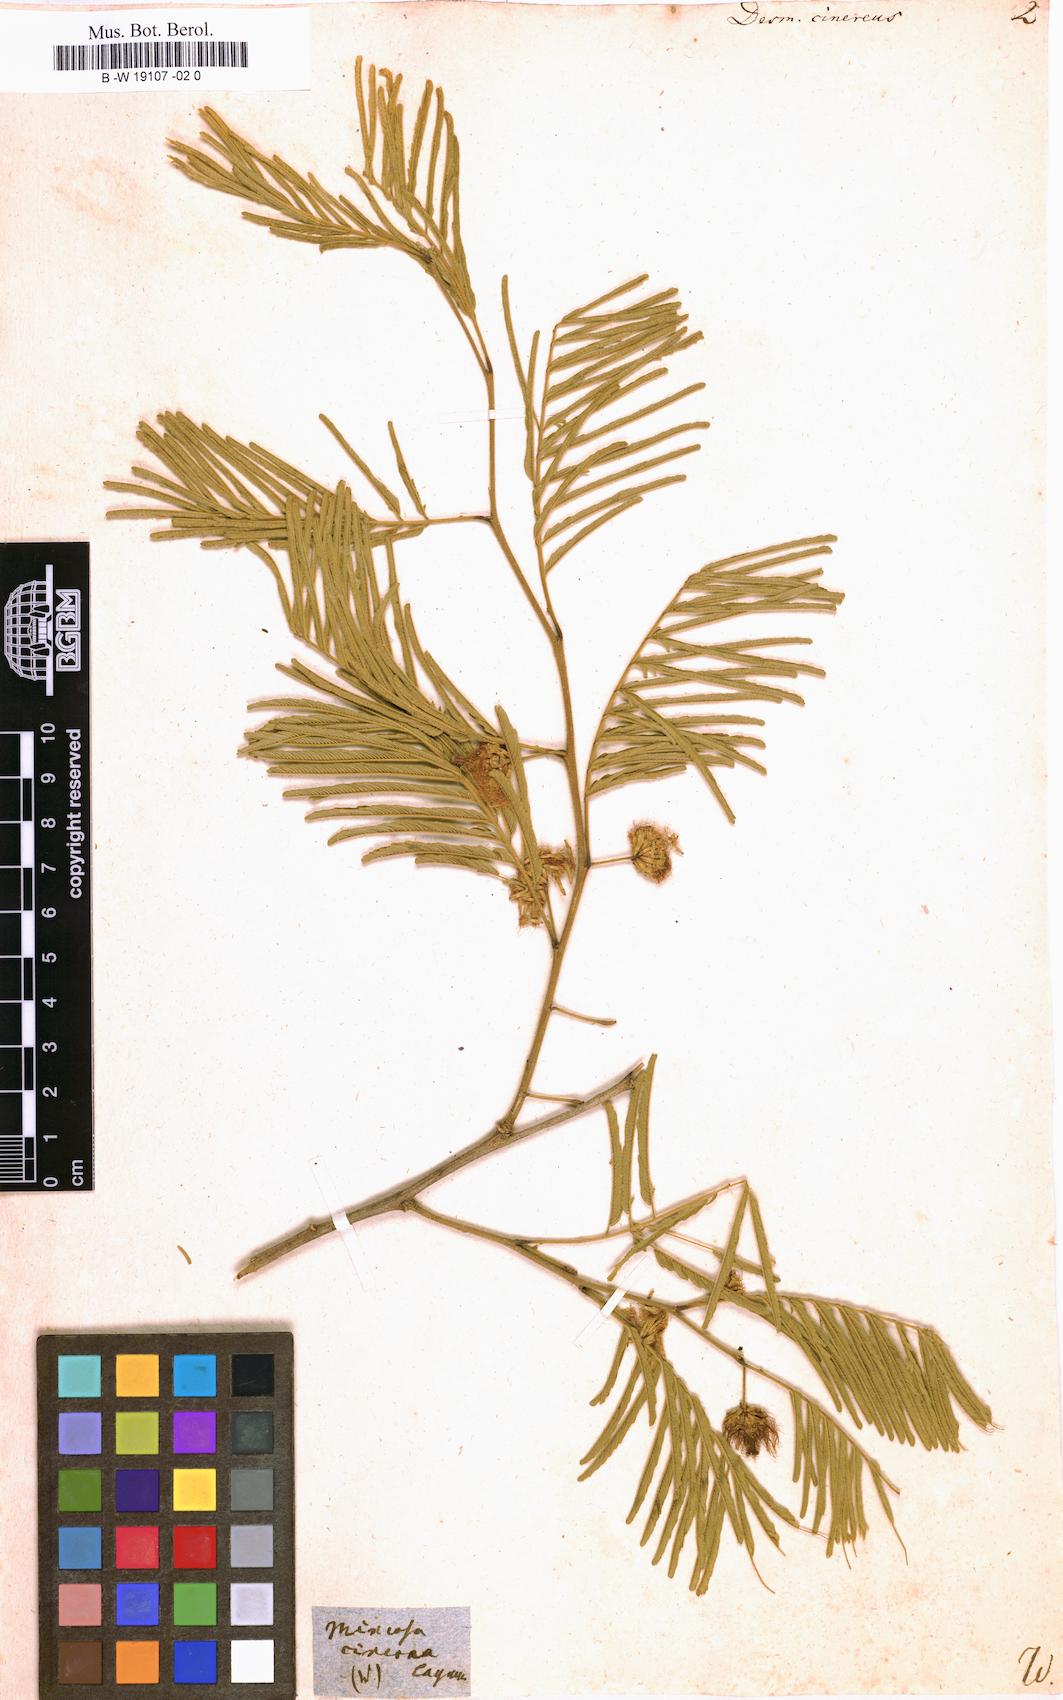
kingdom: Plantae
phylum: Tracheophyta
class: Magnoliopsida
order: Fabales
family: Fabaceae
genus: Dichrostachys
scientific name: Dichrostachys cinerea
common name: Sicklebush
